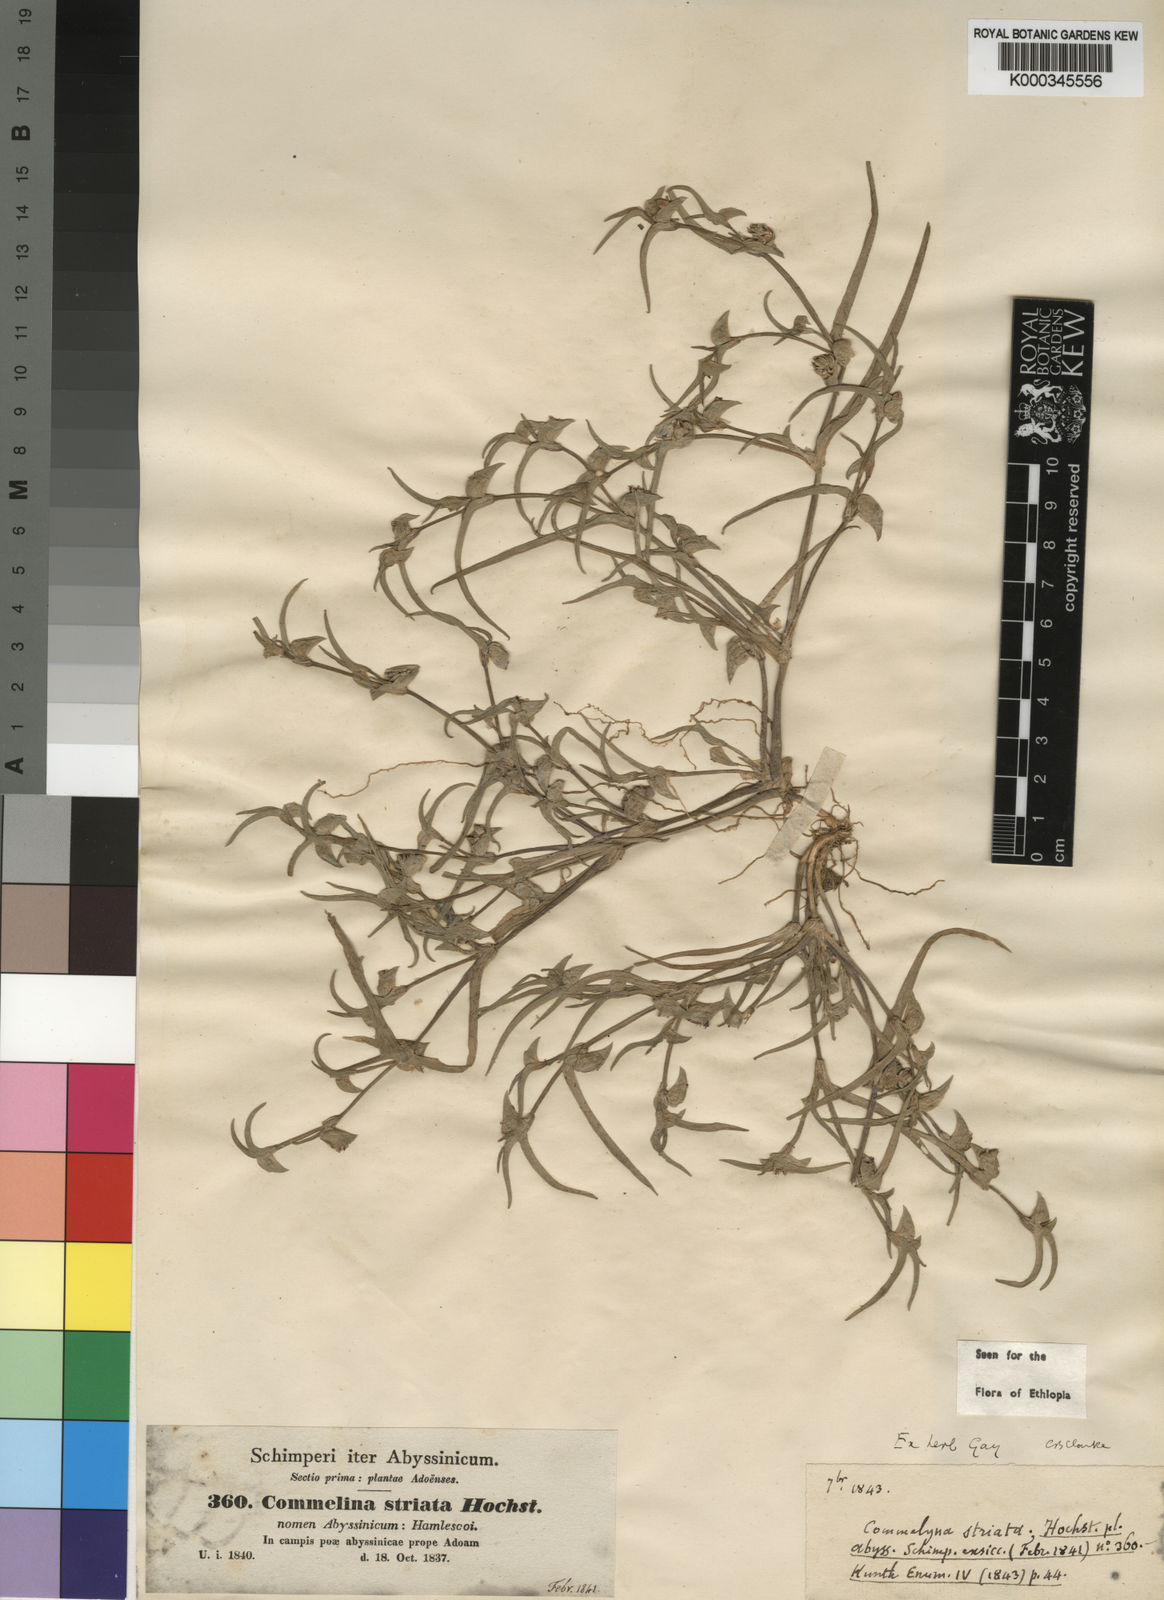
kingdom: Plantae
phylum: Tracheophyta
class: Liliopsida
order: Commelinales
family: Commelinaceae
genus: Commelina
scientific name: Commelina subulata
